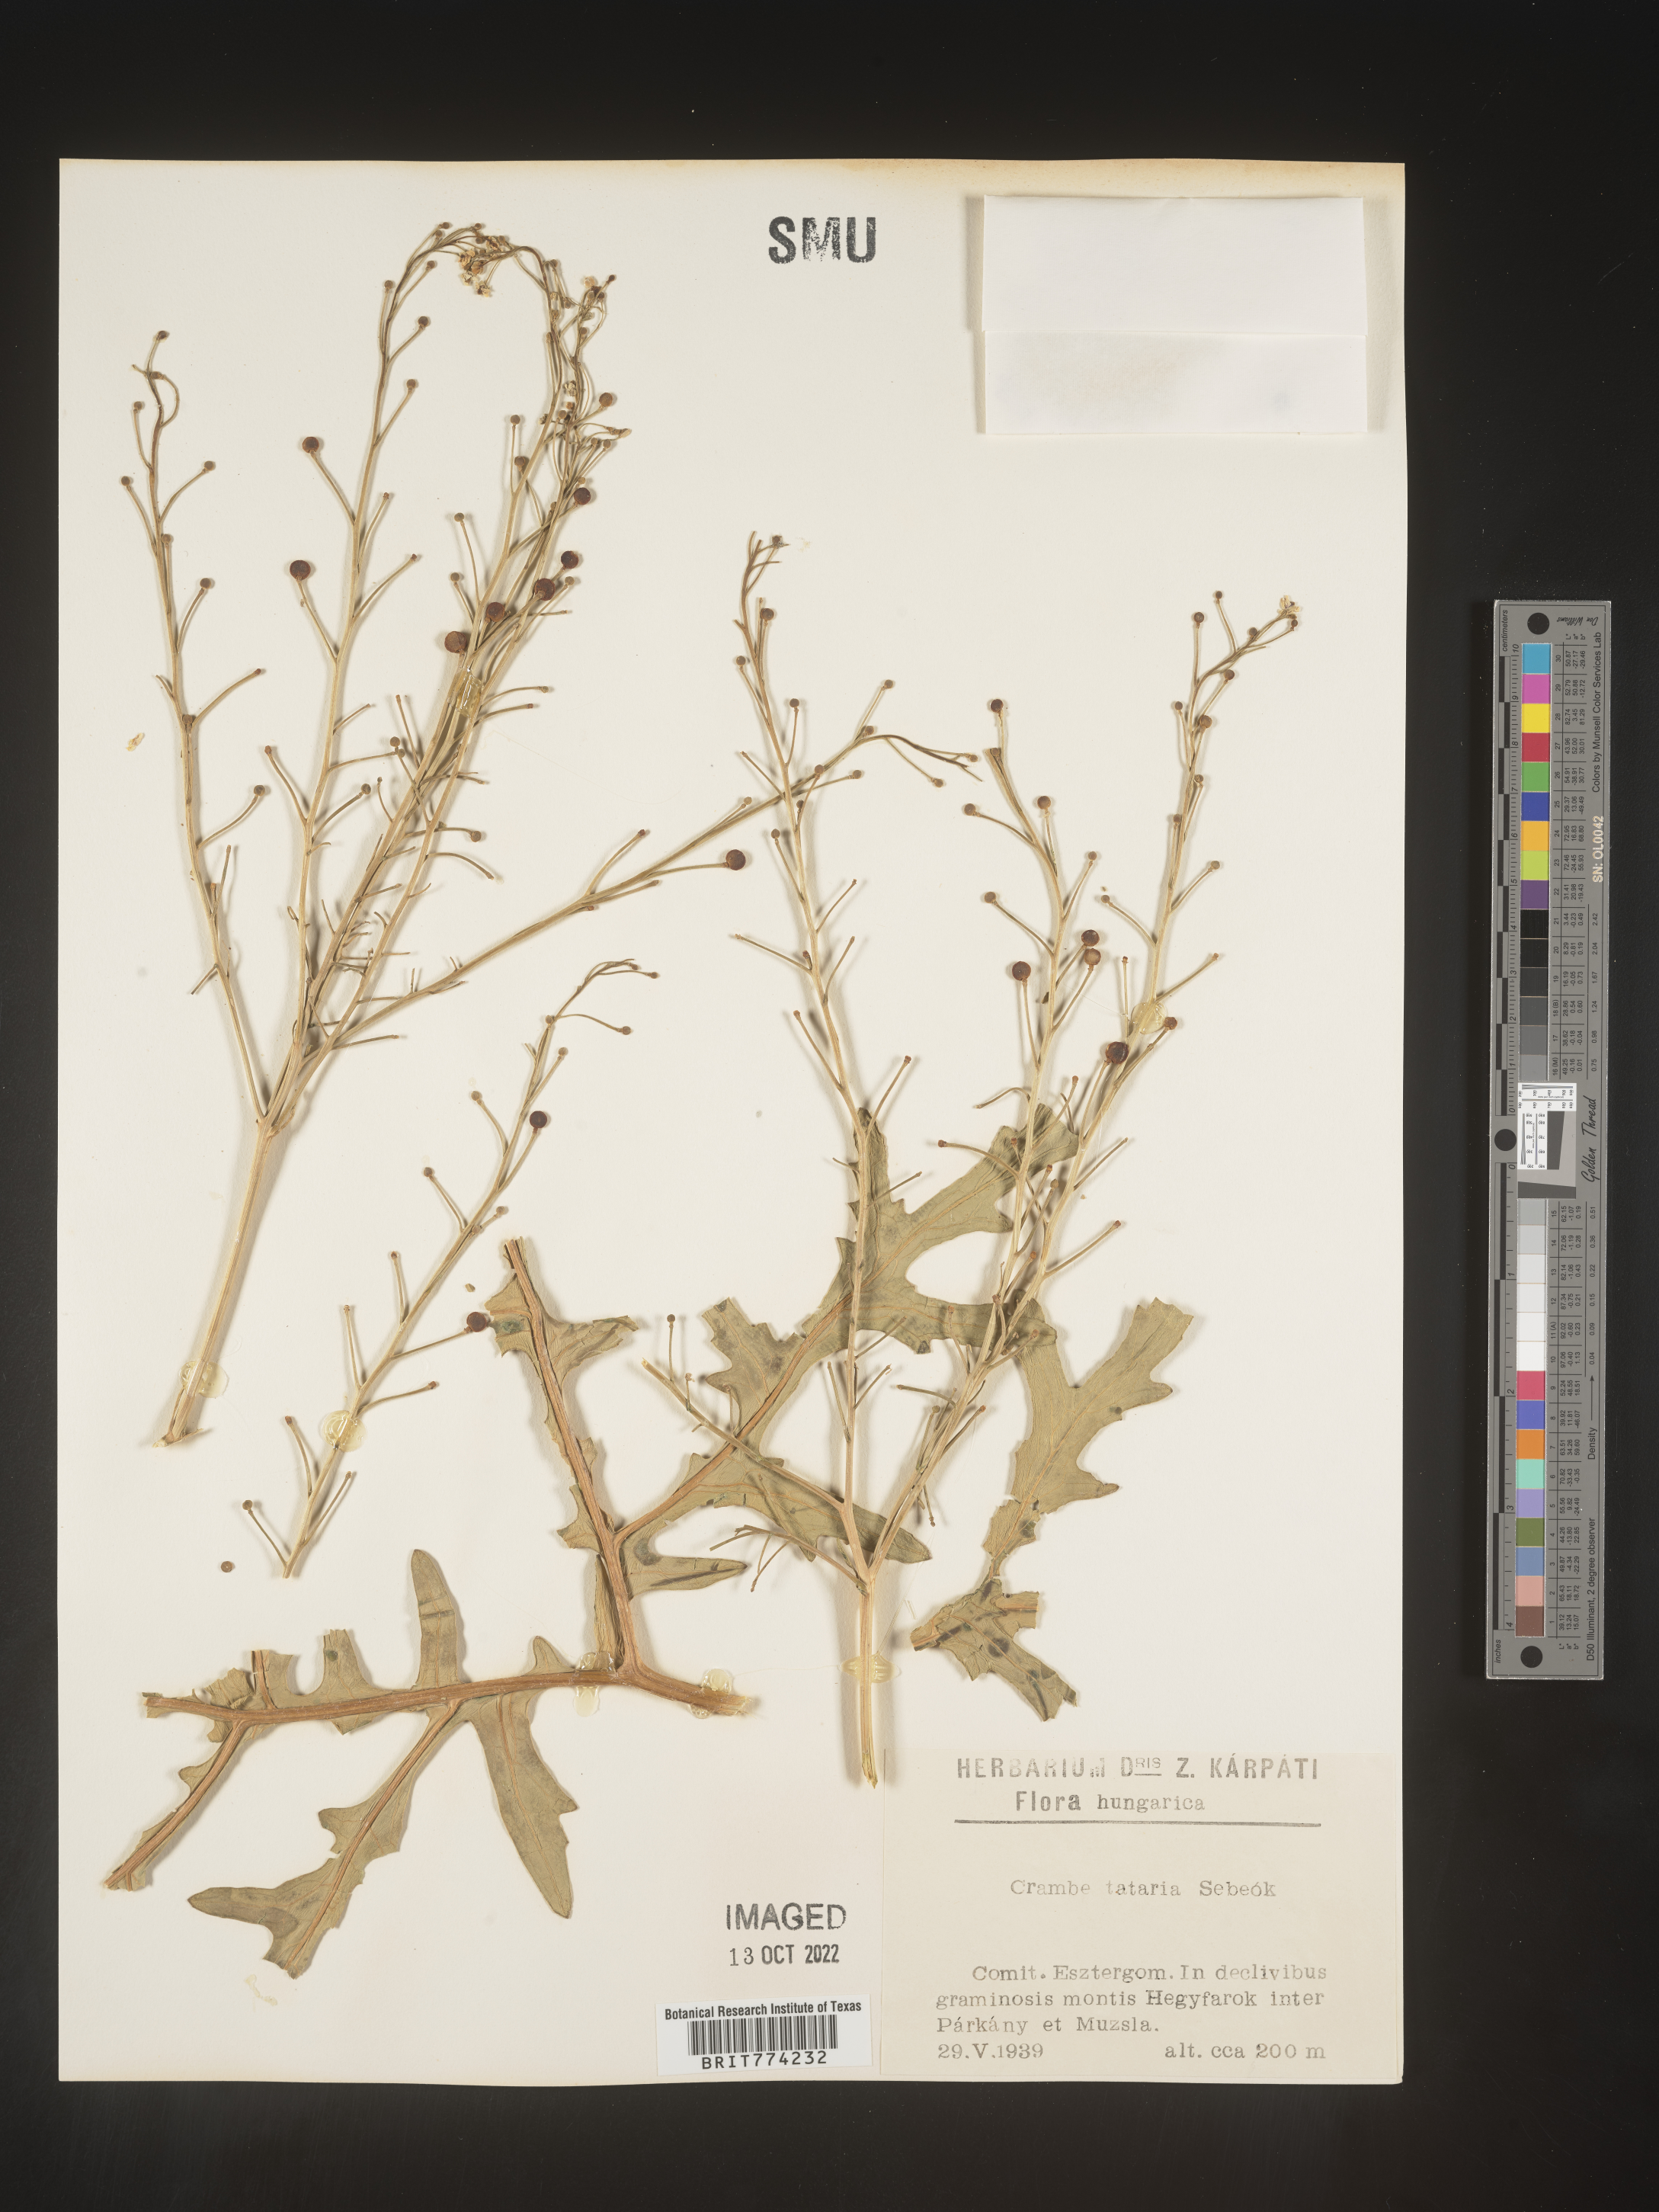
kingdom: Plantae
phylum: Tracheophyta
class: Magnoliopsida
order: Brassicales
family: Brassicaceae
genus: Crambe
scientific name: Crambe
